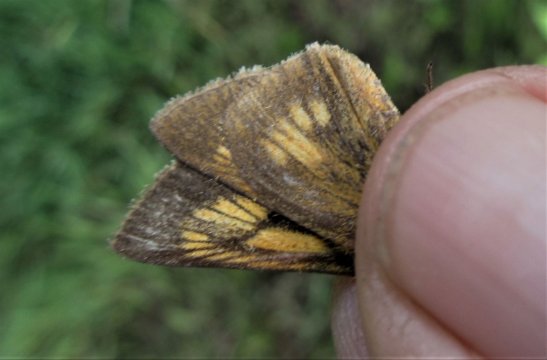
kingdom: Animalia
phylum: Arthropoda
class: Insecta
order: Lepidoptera
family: Hesperiidae
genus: Euphyes
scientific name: Euphyes conspicua
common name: Black Dash
